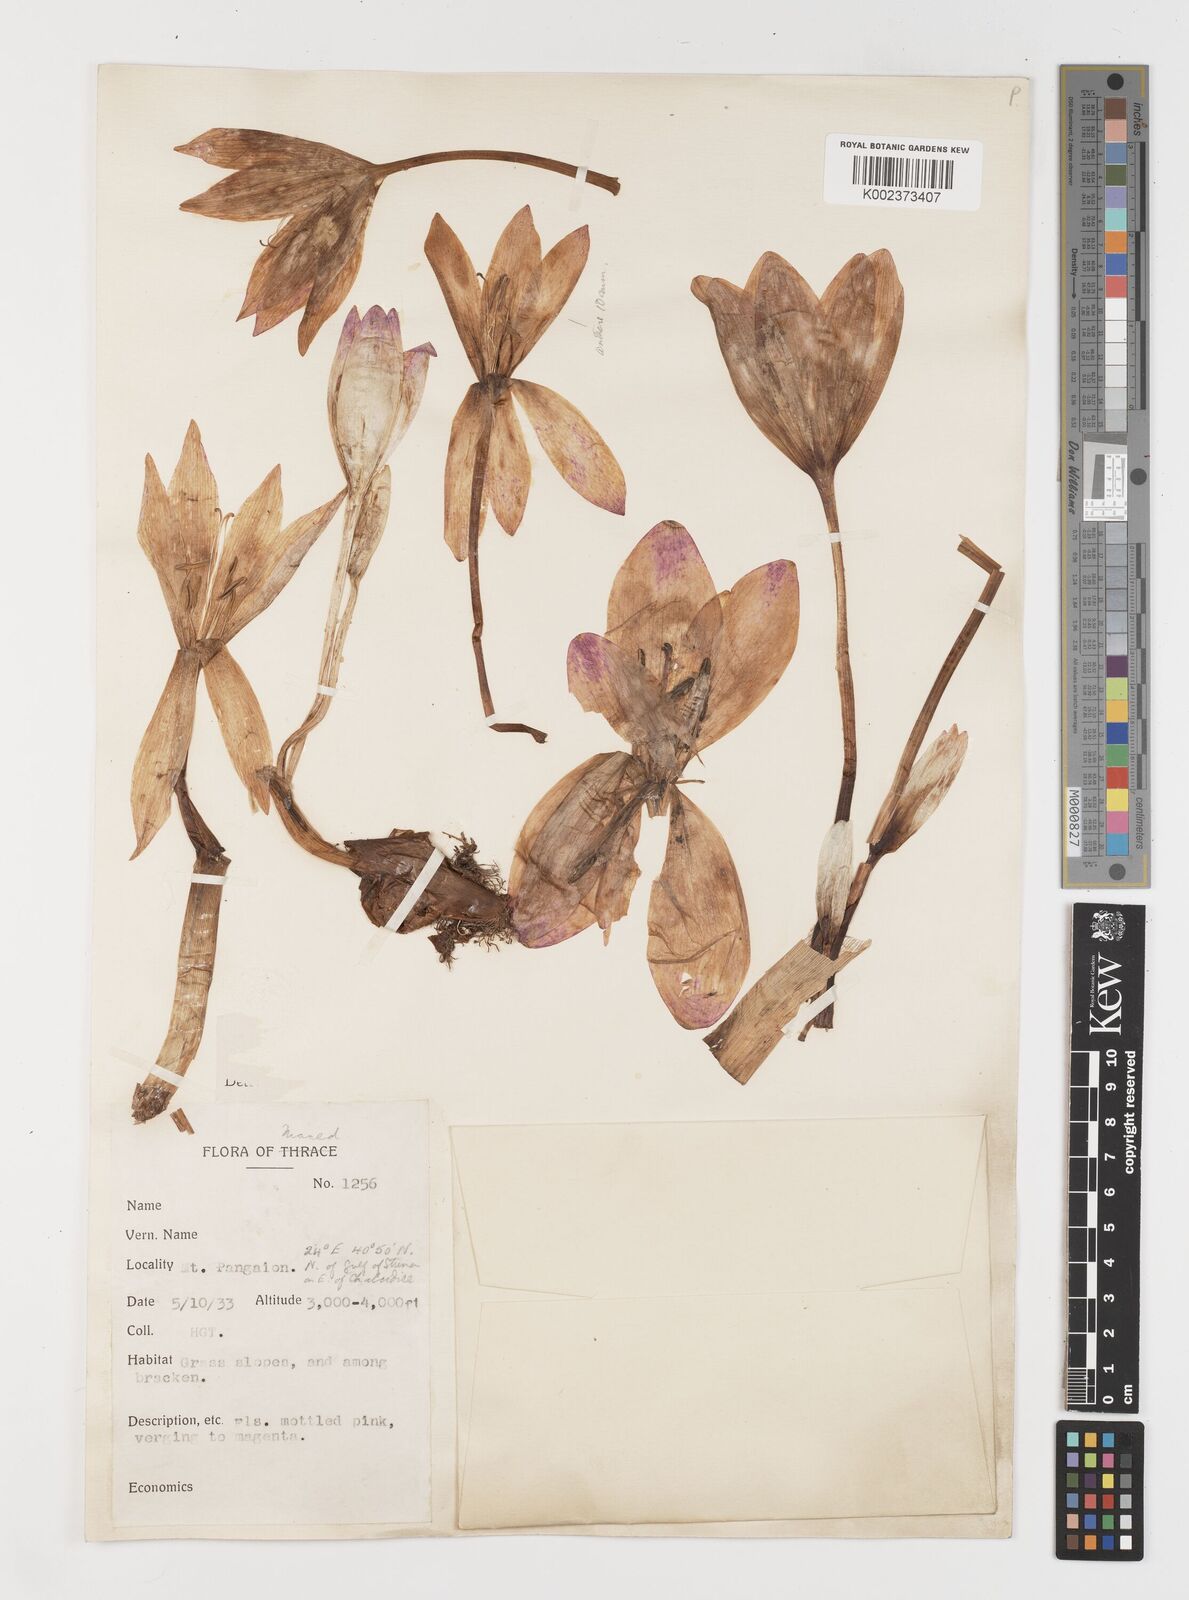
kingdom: Plantae
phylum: Tracheophyta
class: Liliopsida
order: Liliales
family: Colchicaceae
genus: Colchicum
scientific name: Colchicum
